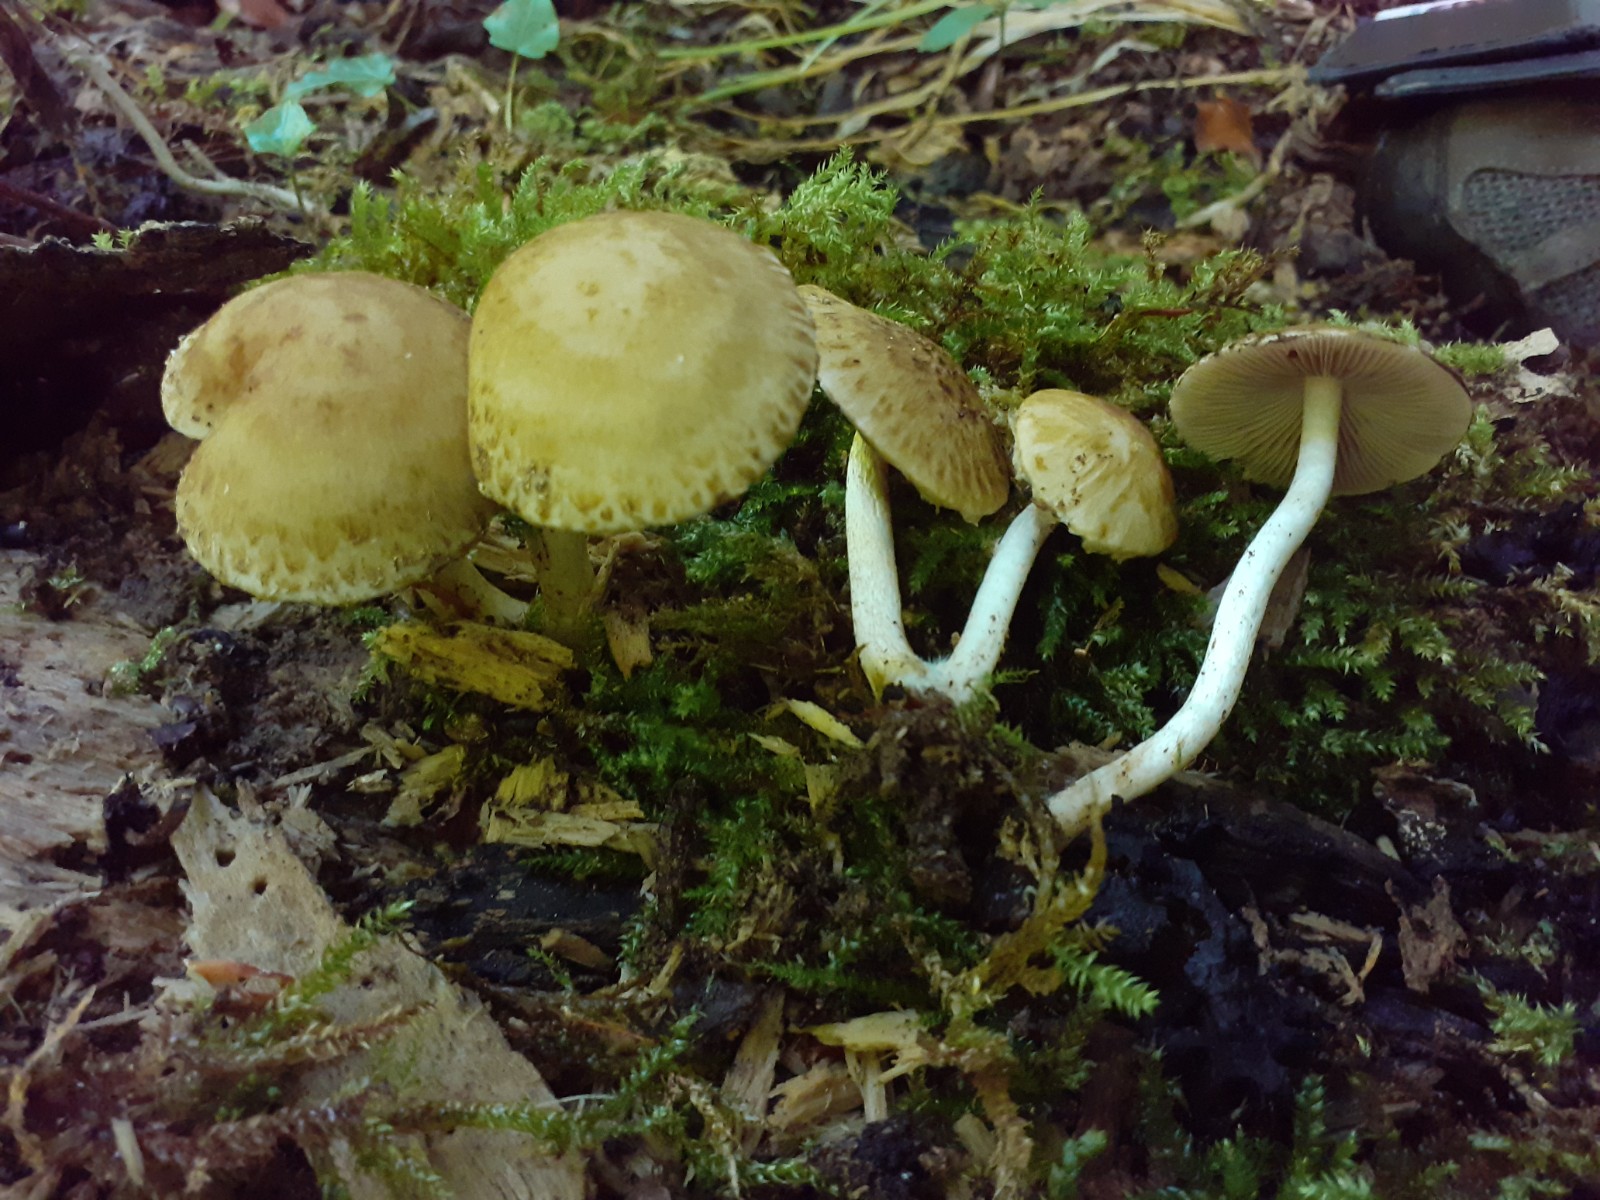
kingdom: Fungi
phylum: Basidiomycota
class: Agaricomycetes
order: Agaricales
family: Psathyrellaceae
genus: Cystoagaricus
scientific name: Cystoagaricus lepidotoides
